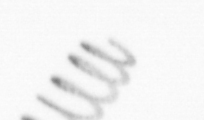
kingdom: Chromista
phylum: Ochrophyta
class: Bacillariophyceae
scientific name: Bacillariophyceae
